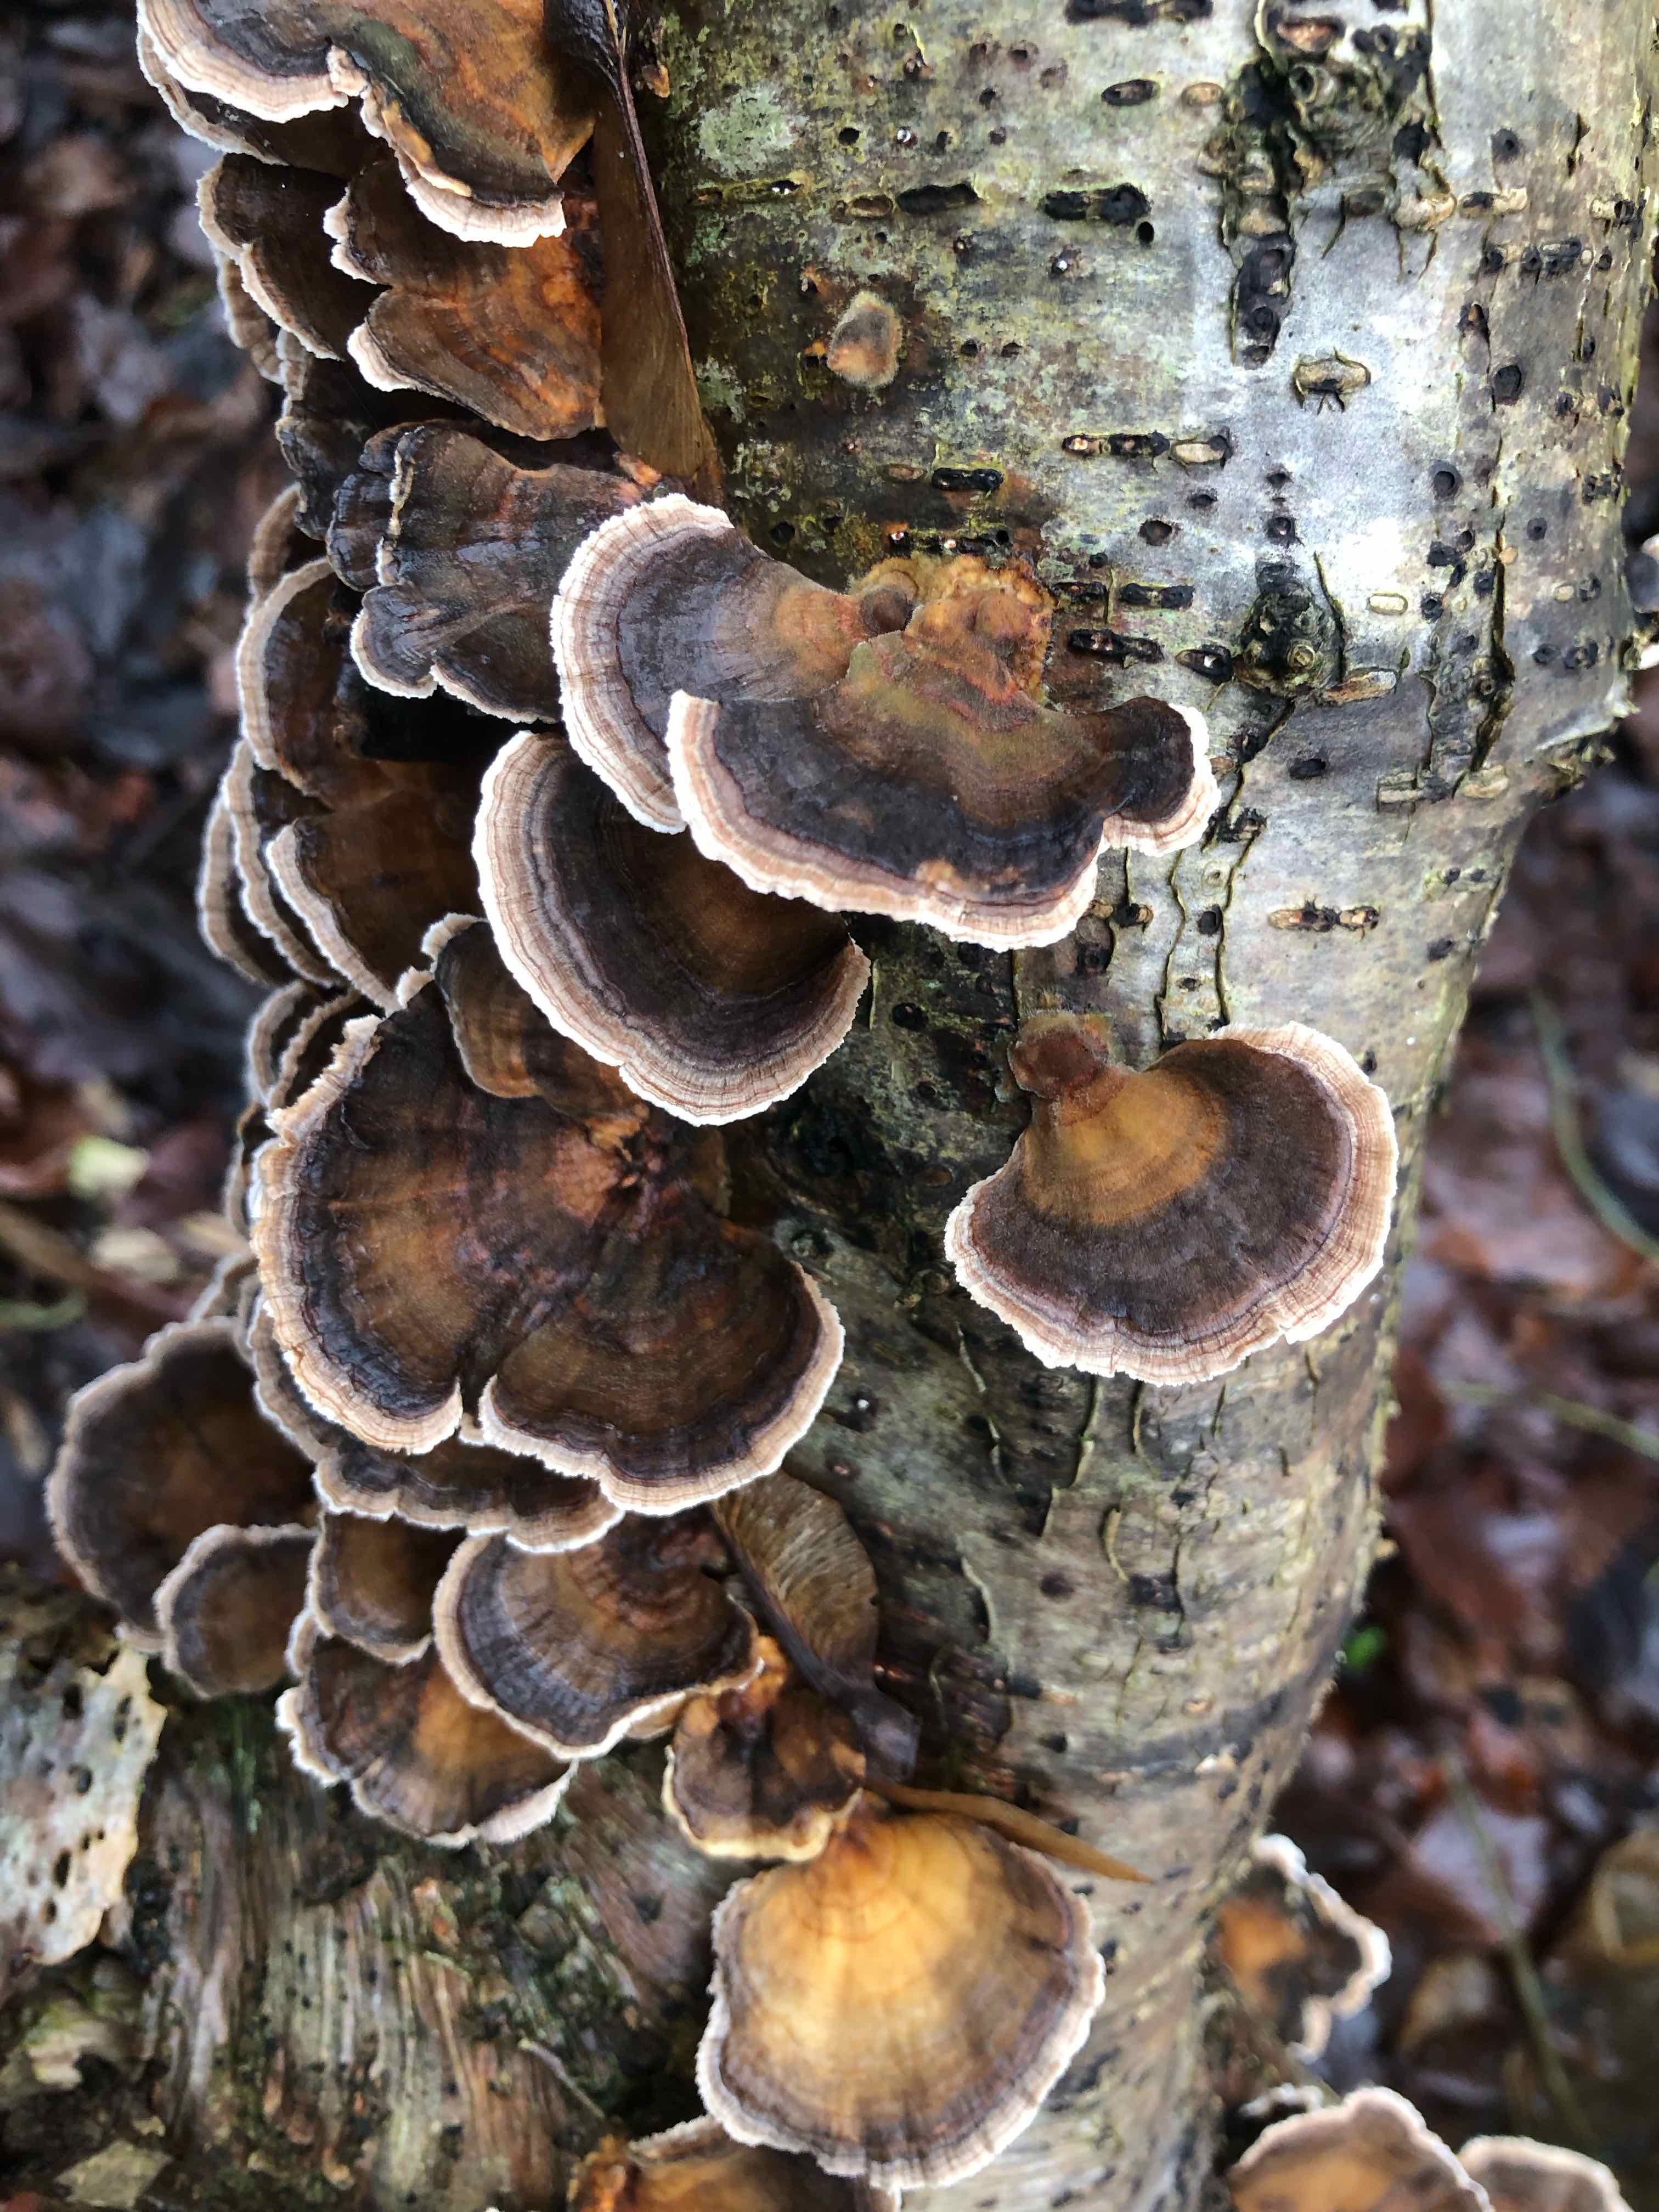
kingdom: Fungi
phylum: Basidiomycota
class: Agaricomycetes
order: Polyporales
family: Polyporaceae
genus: Trametes
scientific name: Trametes versicolor
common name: broget læderporesvamp
